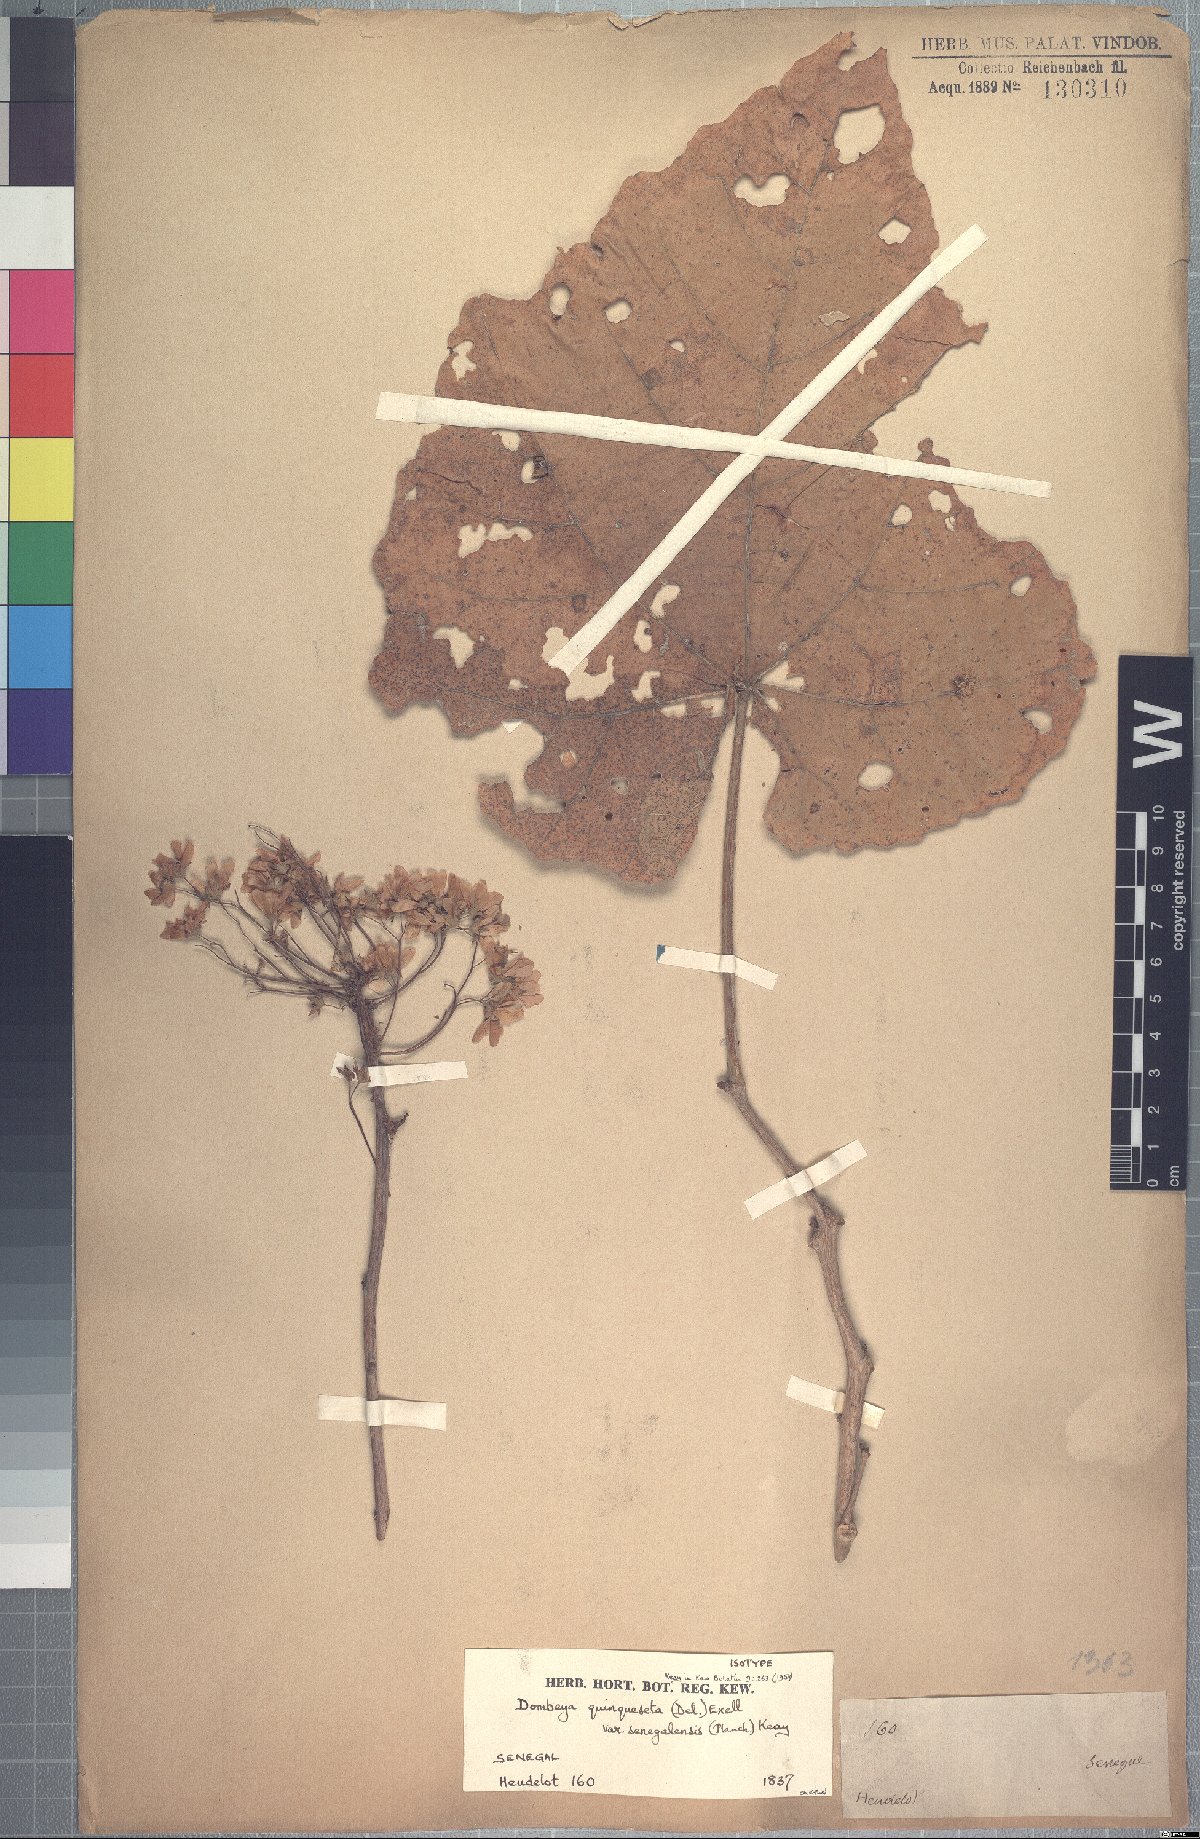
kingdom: Plantae
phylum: Tracheophyta
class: Magnoliopsida
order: Malvales
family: Malvaceae
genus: Dombeya
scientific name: Dombeya quinqueseta
